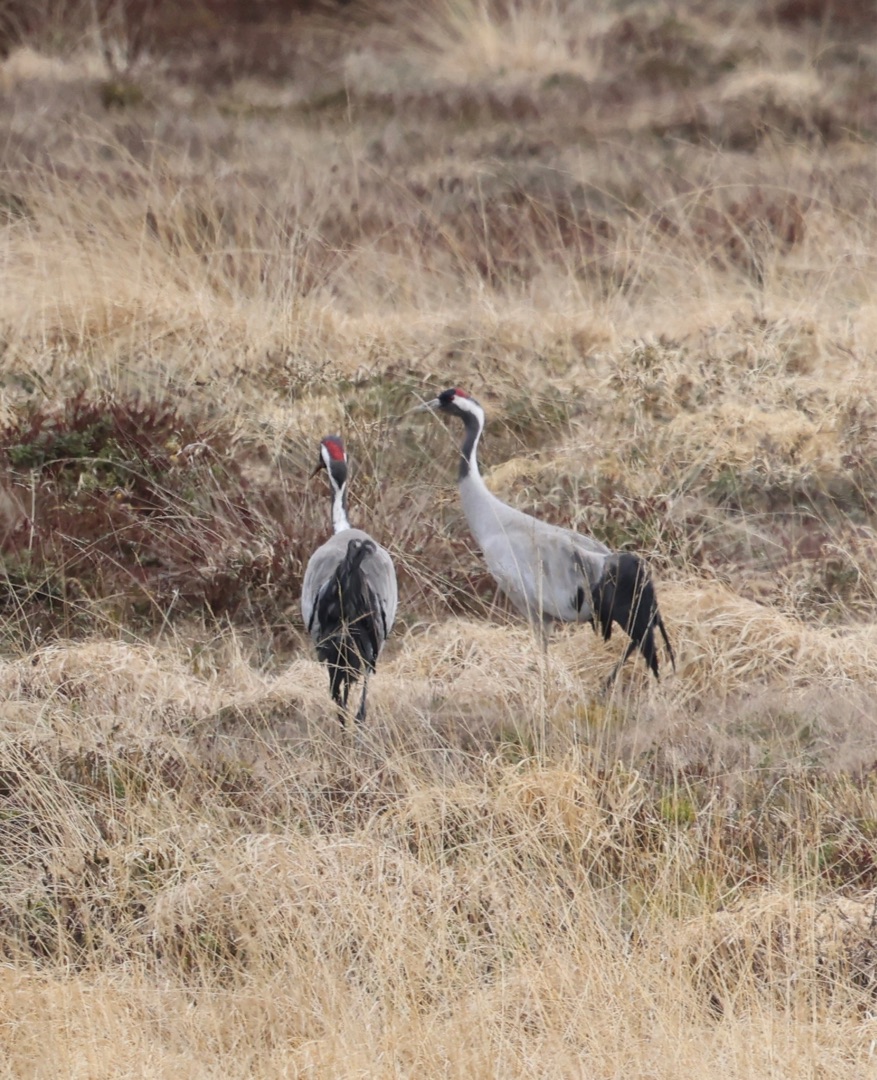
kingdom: Animalia
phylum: Chordata
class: Aves
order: Gruiformes
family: Gruidae
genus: Grus
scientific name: Grus grus
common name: Trane
